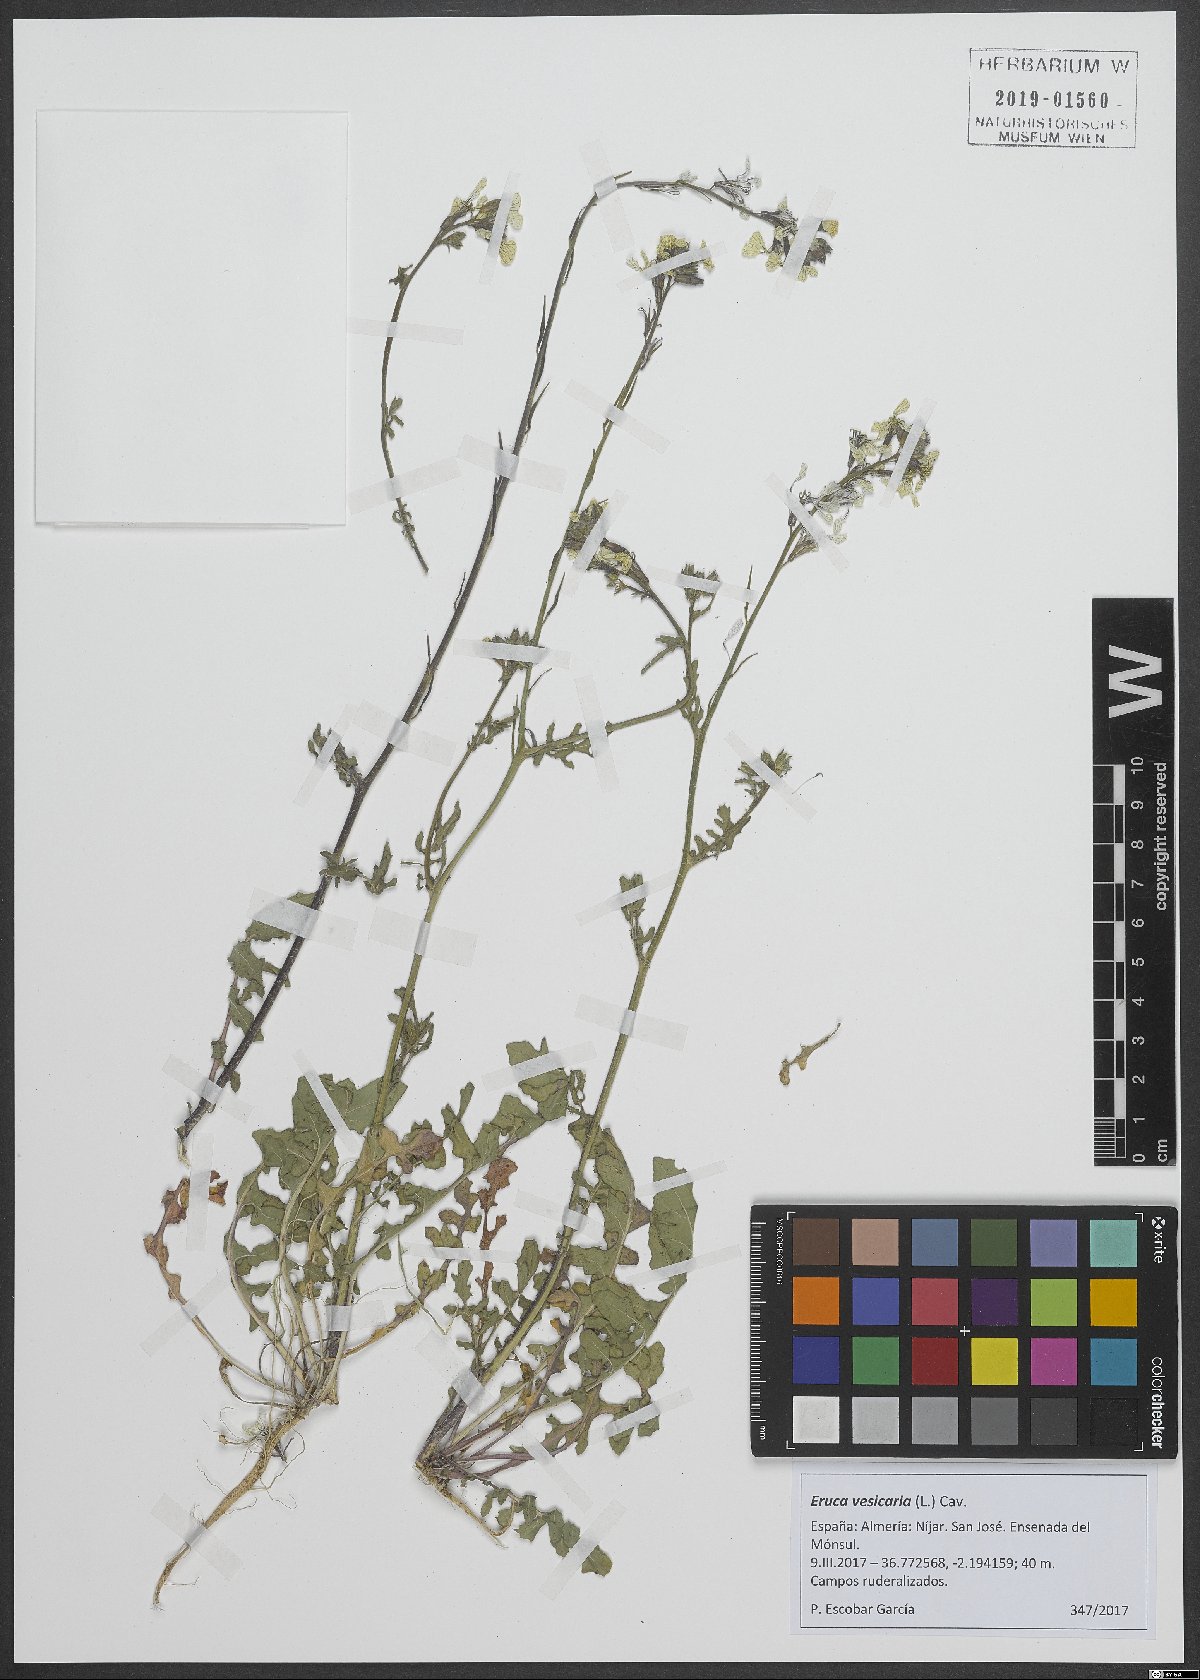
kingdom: Plantae
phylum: Tracheophyta
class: Magnoliopsida
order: Brassicales
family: Brassicaceae
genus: Eruca
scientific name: Eruca vesicaria
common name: Garden rocket
